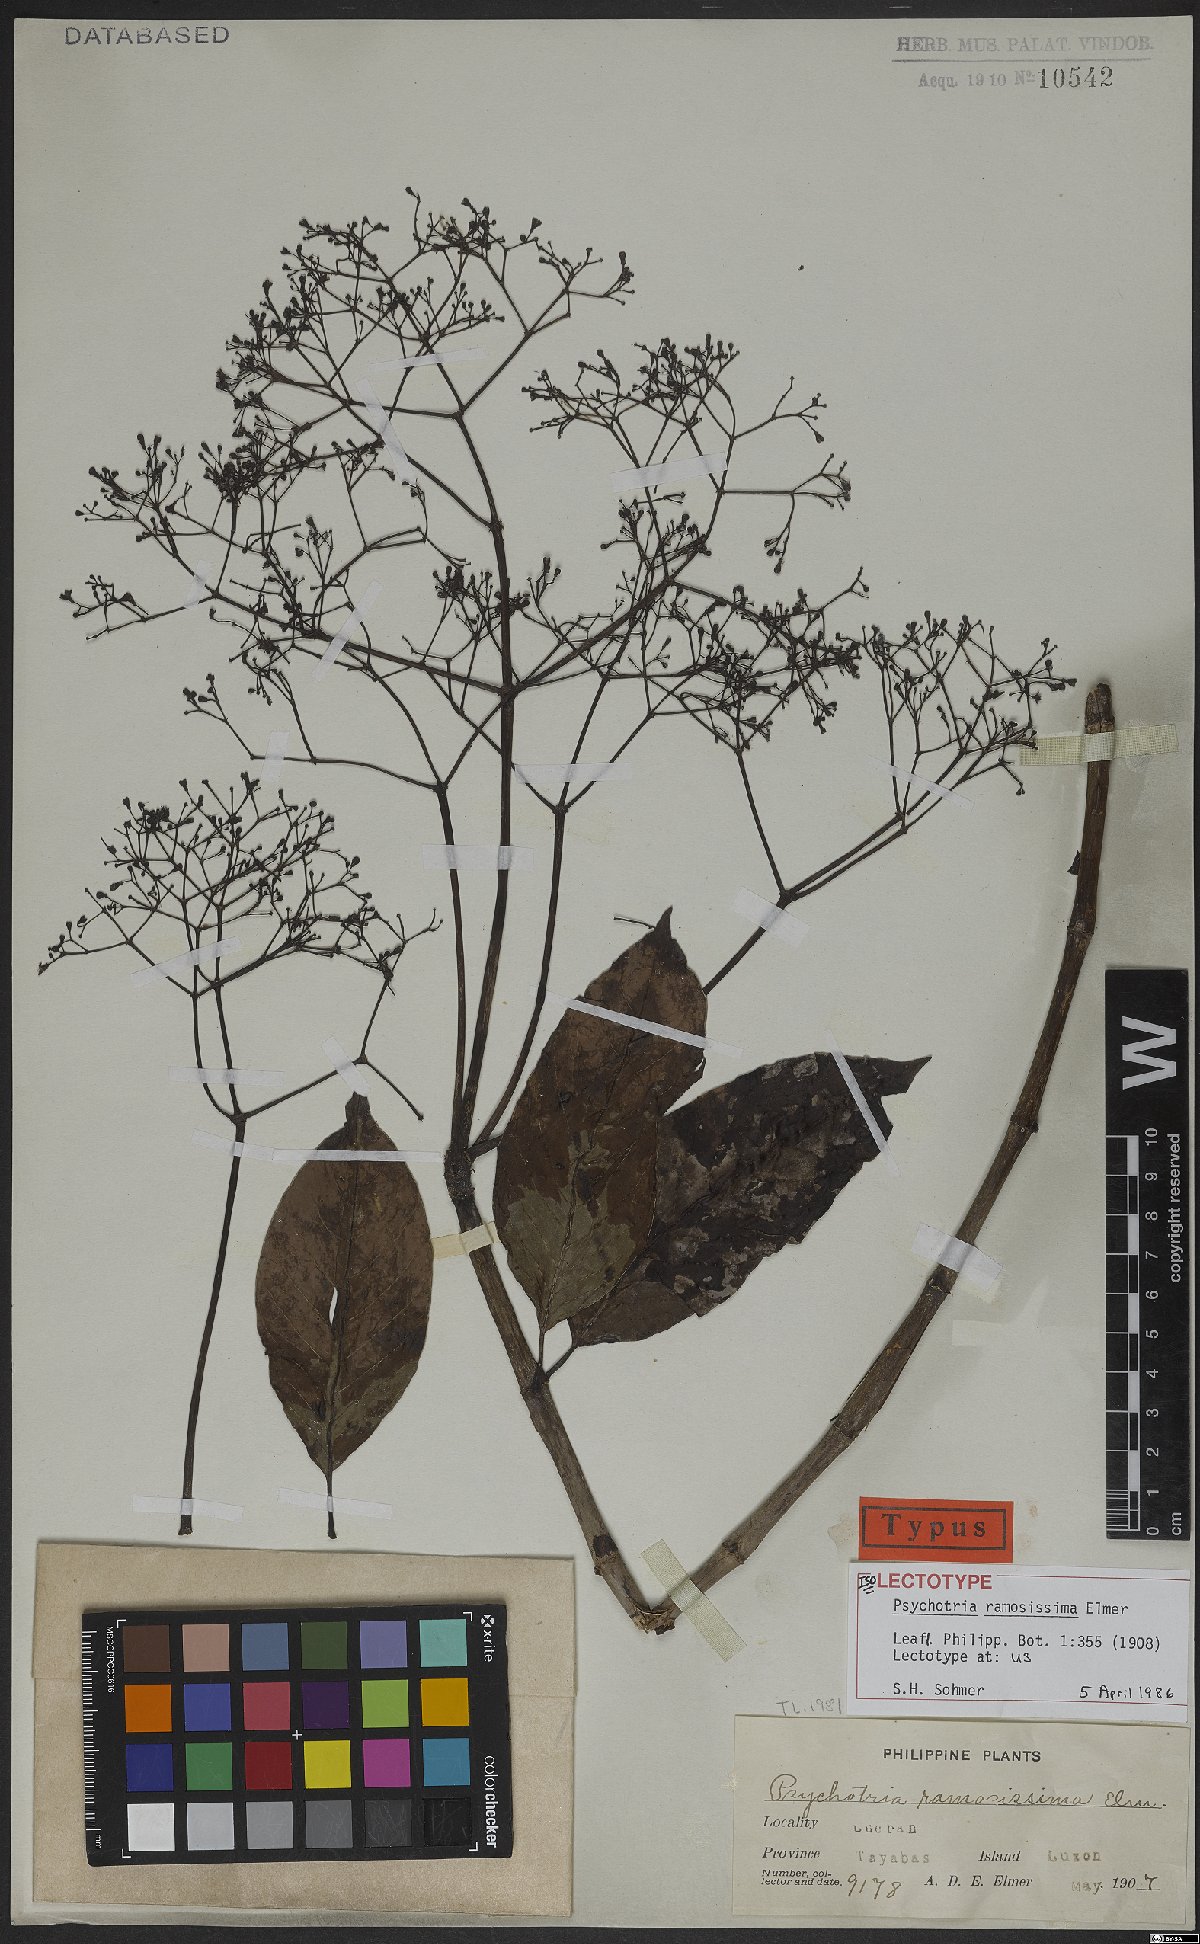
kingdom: Plantae
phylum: Tracheophyta
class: Magnoliopsida
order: Gentianales
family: Rubiaceae
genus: Psychotria
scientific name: Psychotria ramosissima
